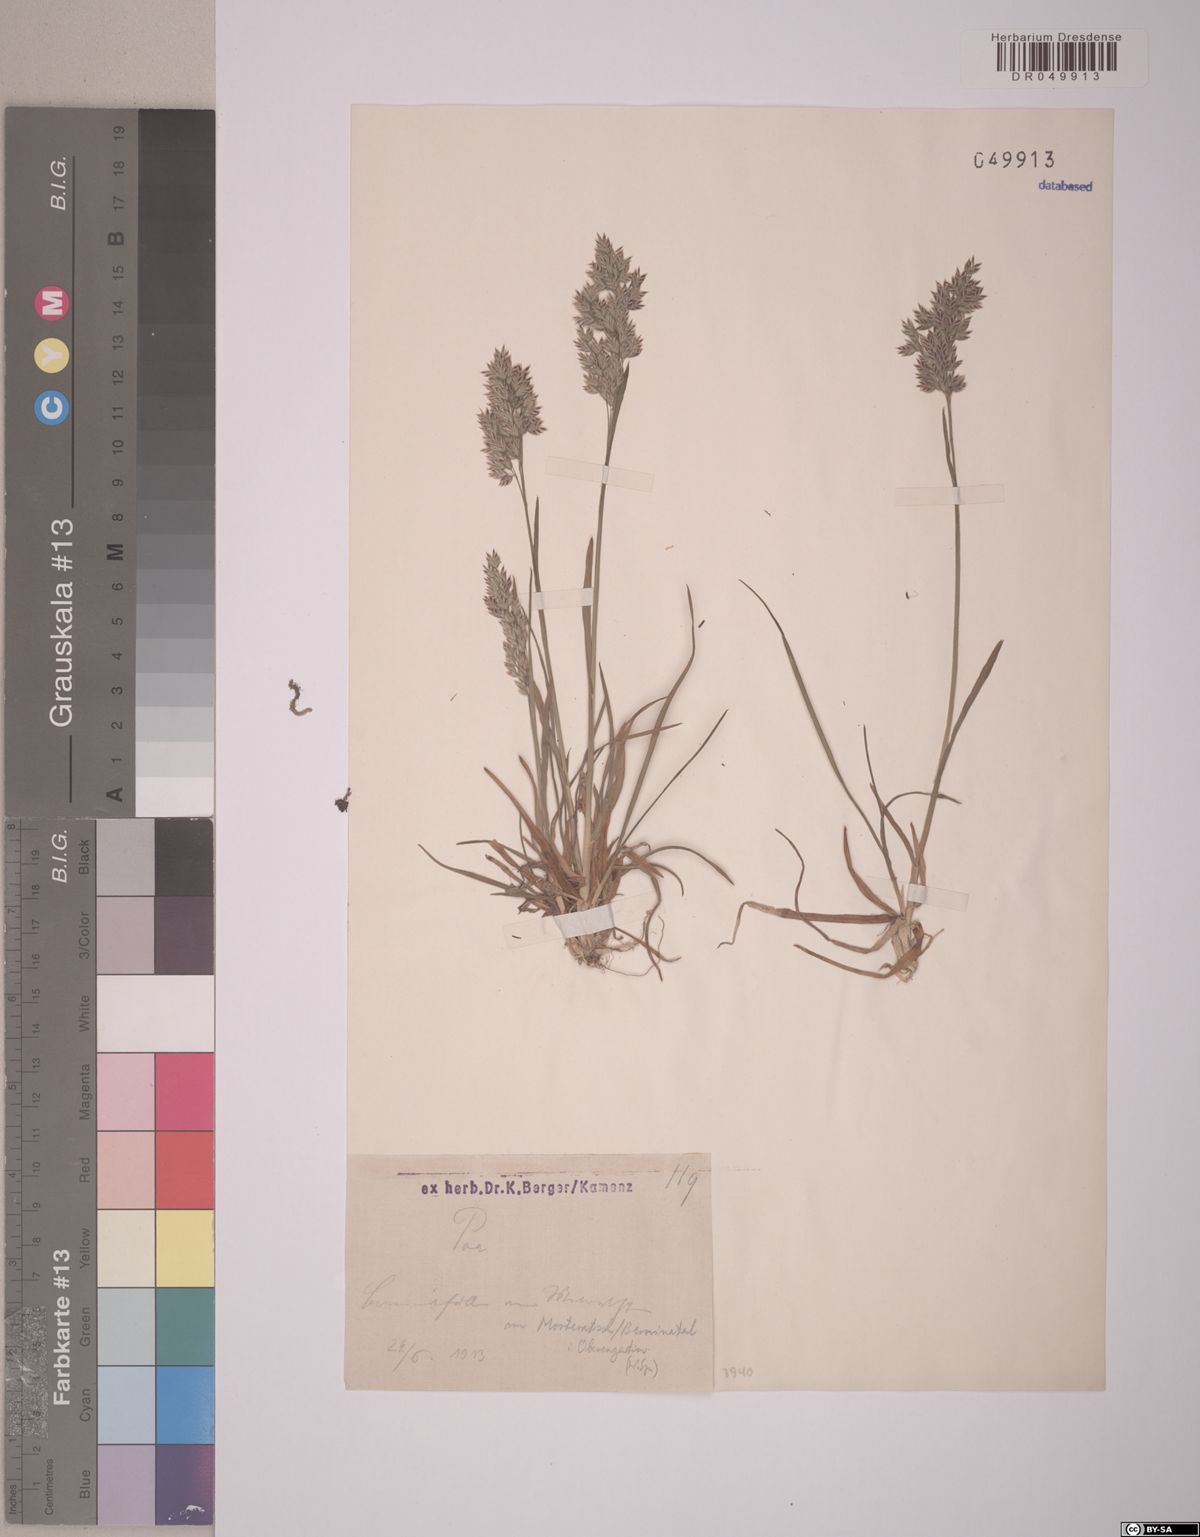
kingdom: Plantae
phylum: Tracheophyta
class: Liliopsida
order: Poales
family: Poaceae
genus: Poa
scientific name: Poa
